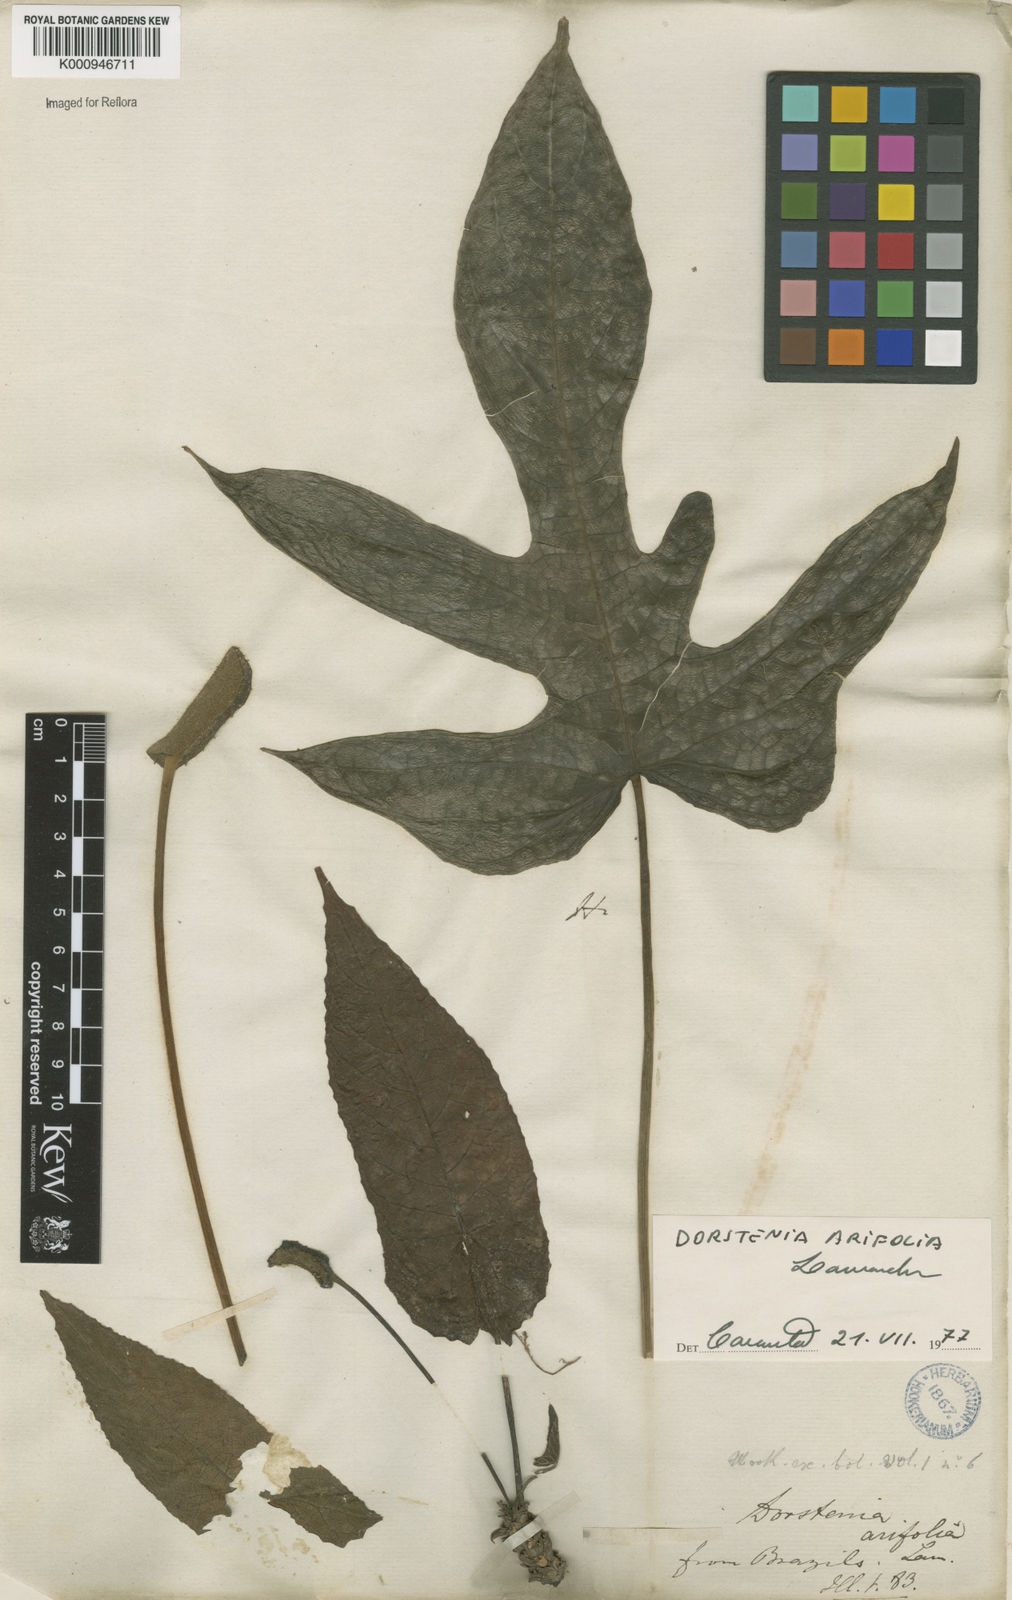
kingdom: Plantae
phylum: Tracheophyta
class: Magnoliopsida
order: Rosales
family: Moraceae
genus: Dorstenia
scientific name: Dorstenia arifolia
